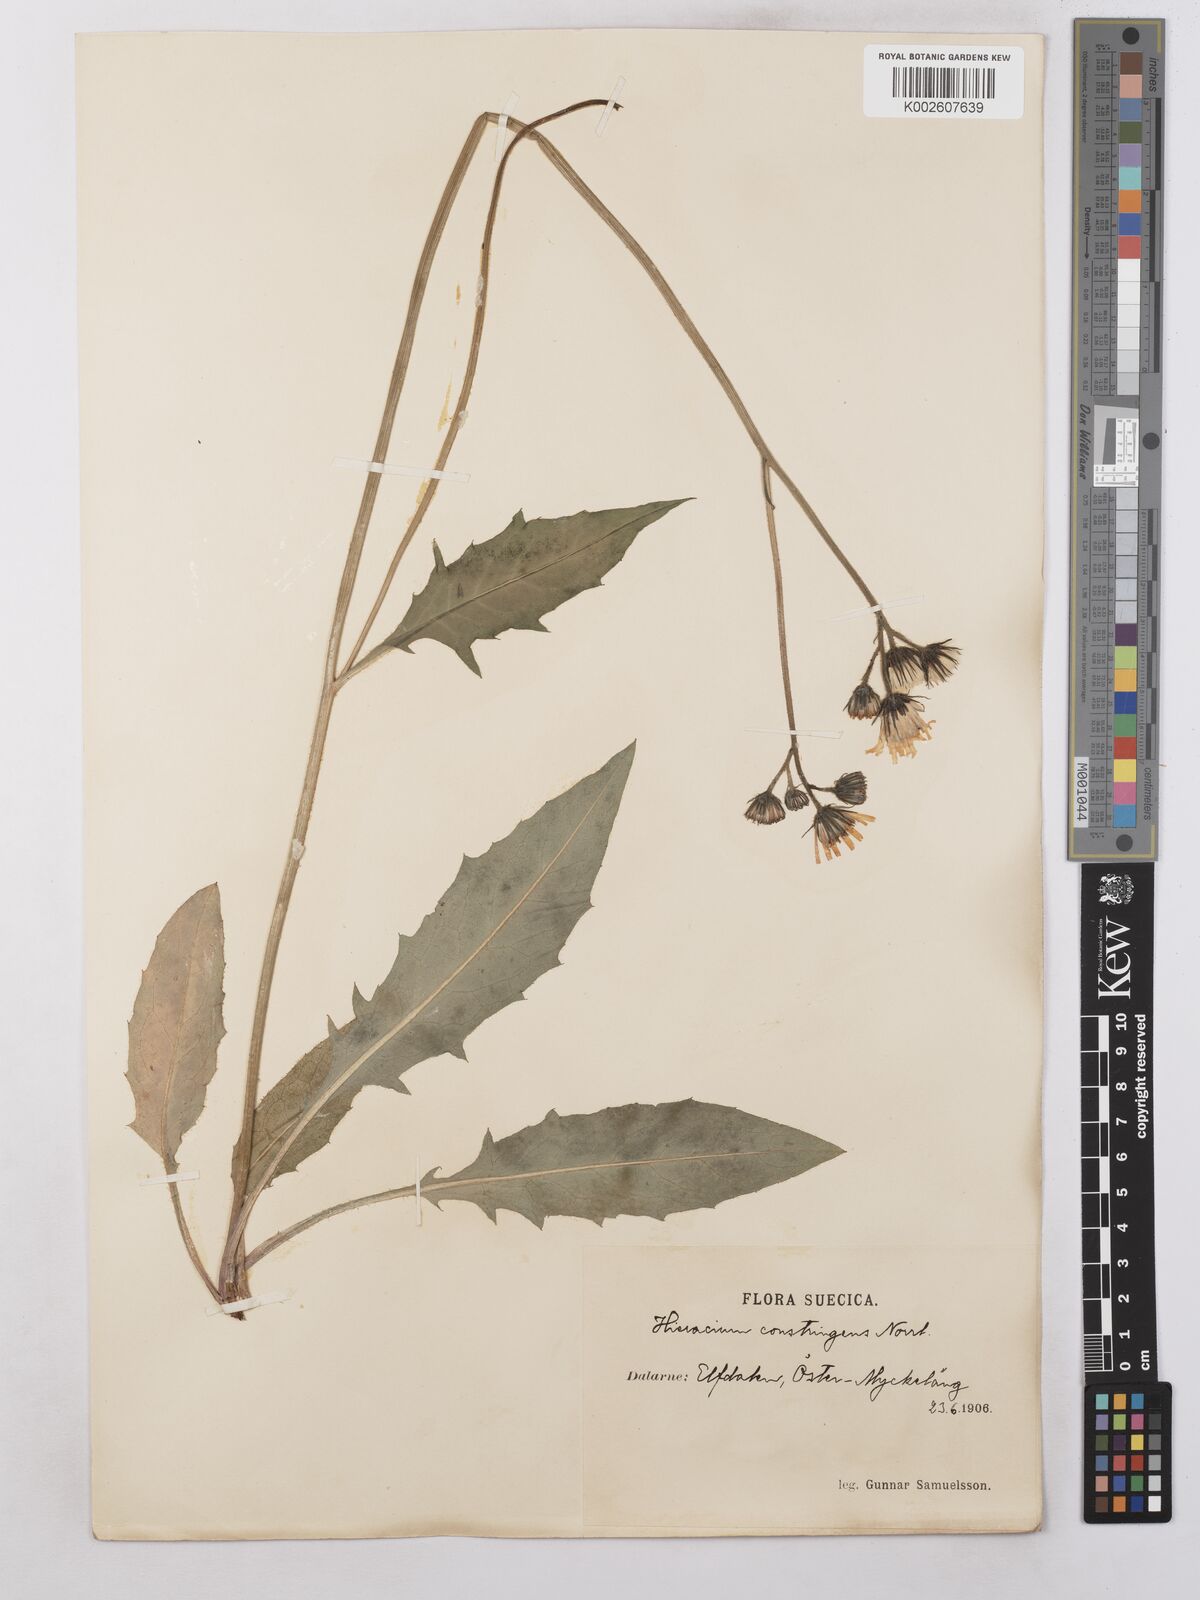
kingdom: Plantae
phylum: Tracheophyta
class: Magnoliopsida
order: Asterales
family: Asteraceae
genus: Hieracium
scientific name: Hieracium subramosum
